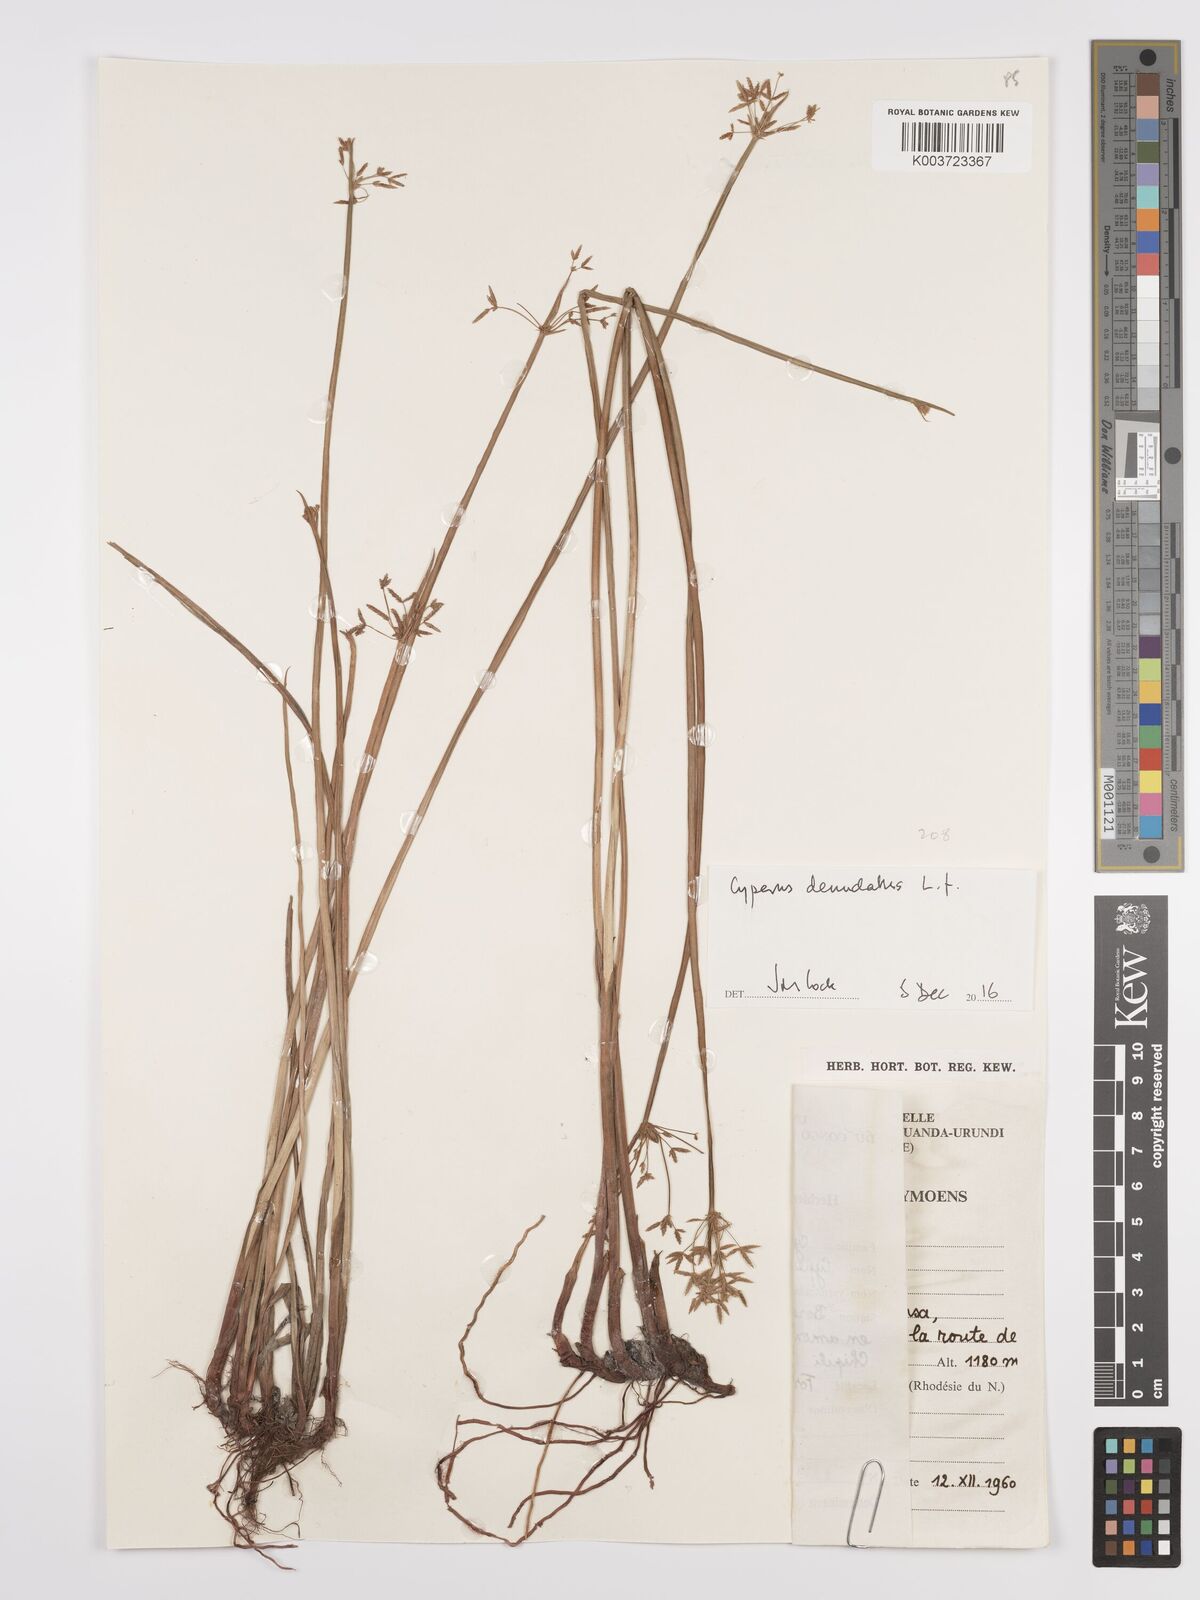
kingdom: Plantae
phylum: Tracheophyta
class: Liliopsida
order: Poales
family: Cyperaceae
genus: Cyperus
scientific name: Cyperus denudatus
